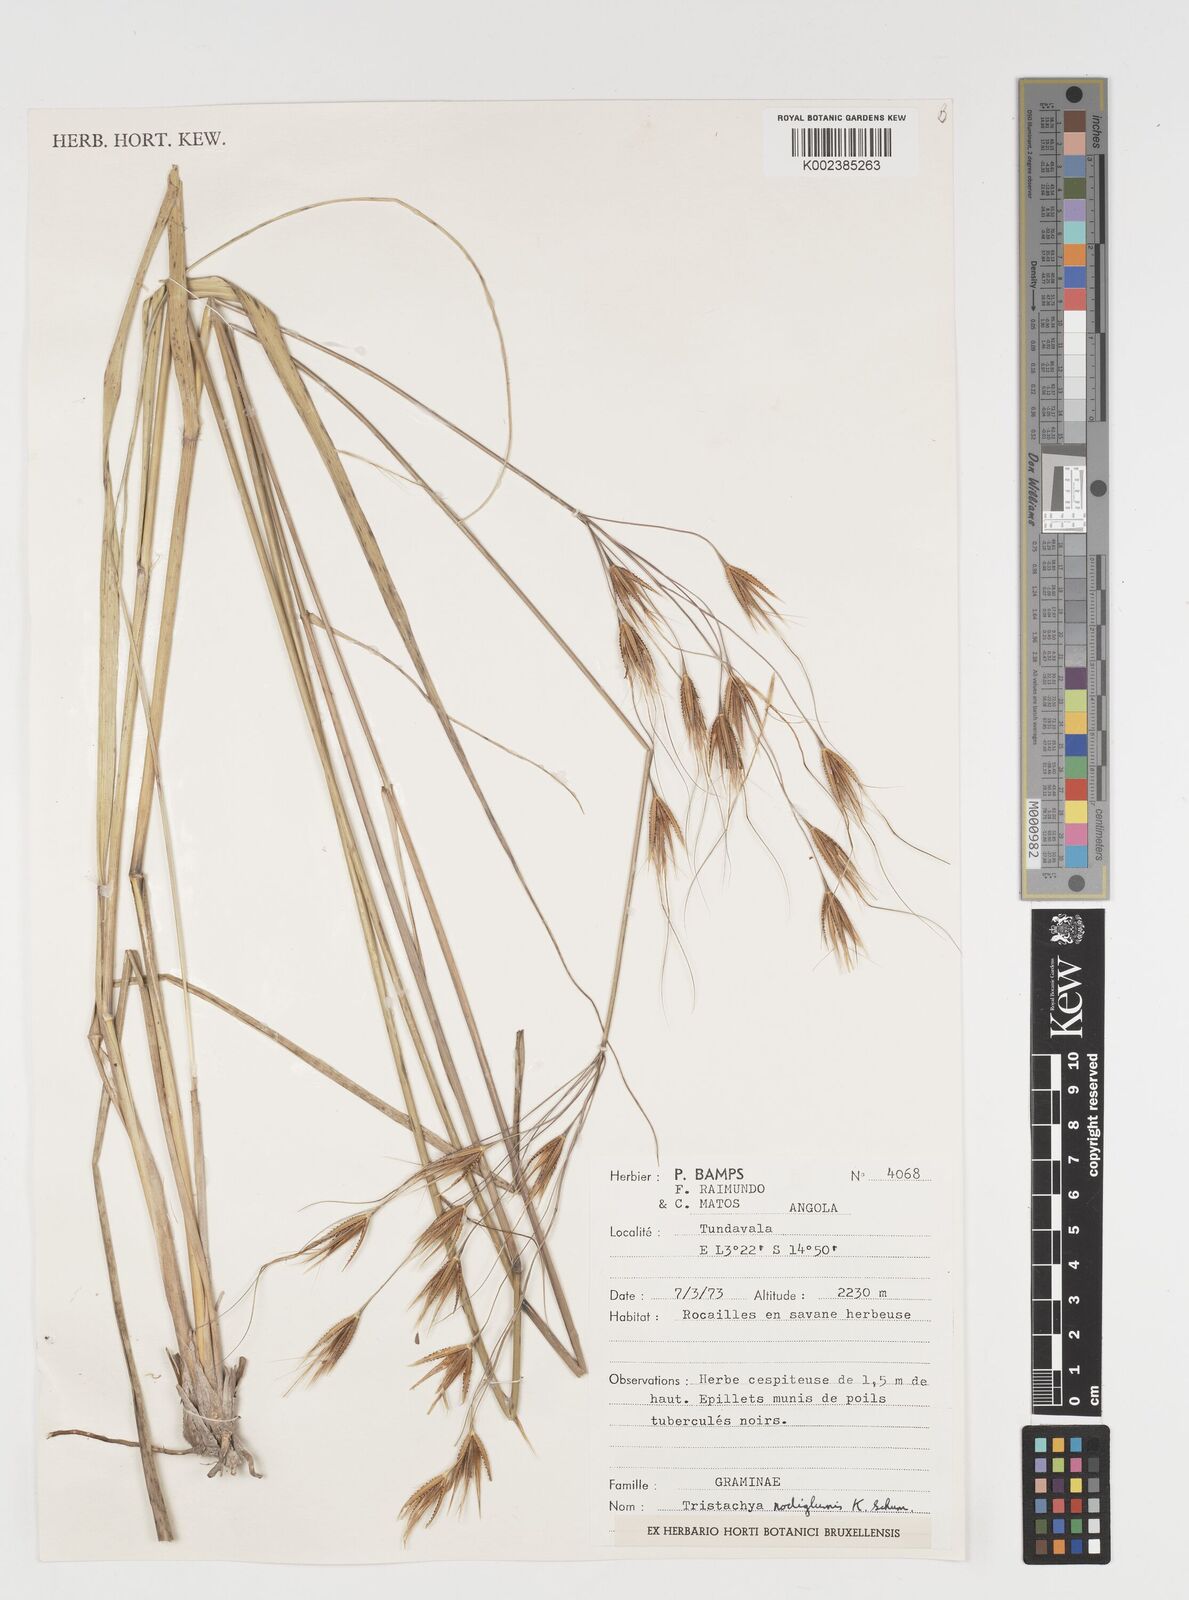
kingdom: Plantae
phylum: Tracheophyta
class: Liliopsida
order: Poales
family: Poaceae
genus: Tristachya
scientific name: Tristachya nodiglumis
